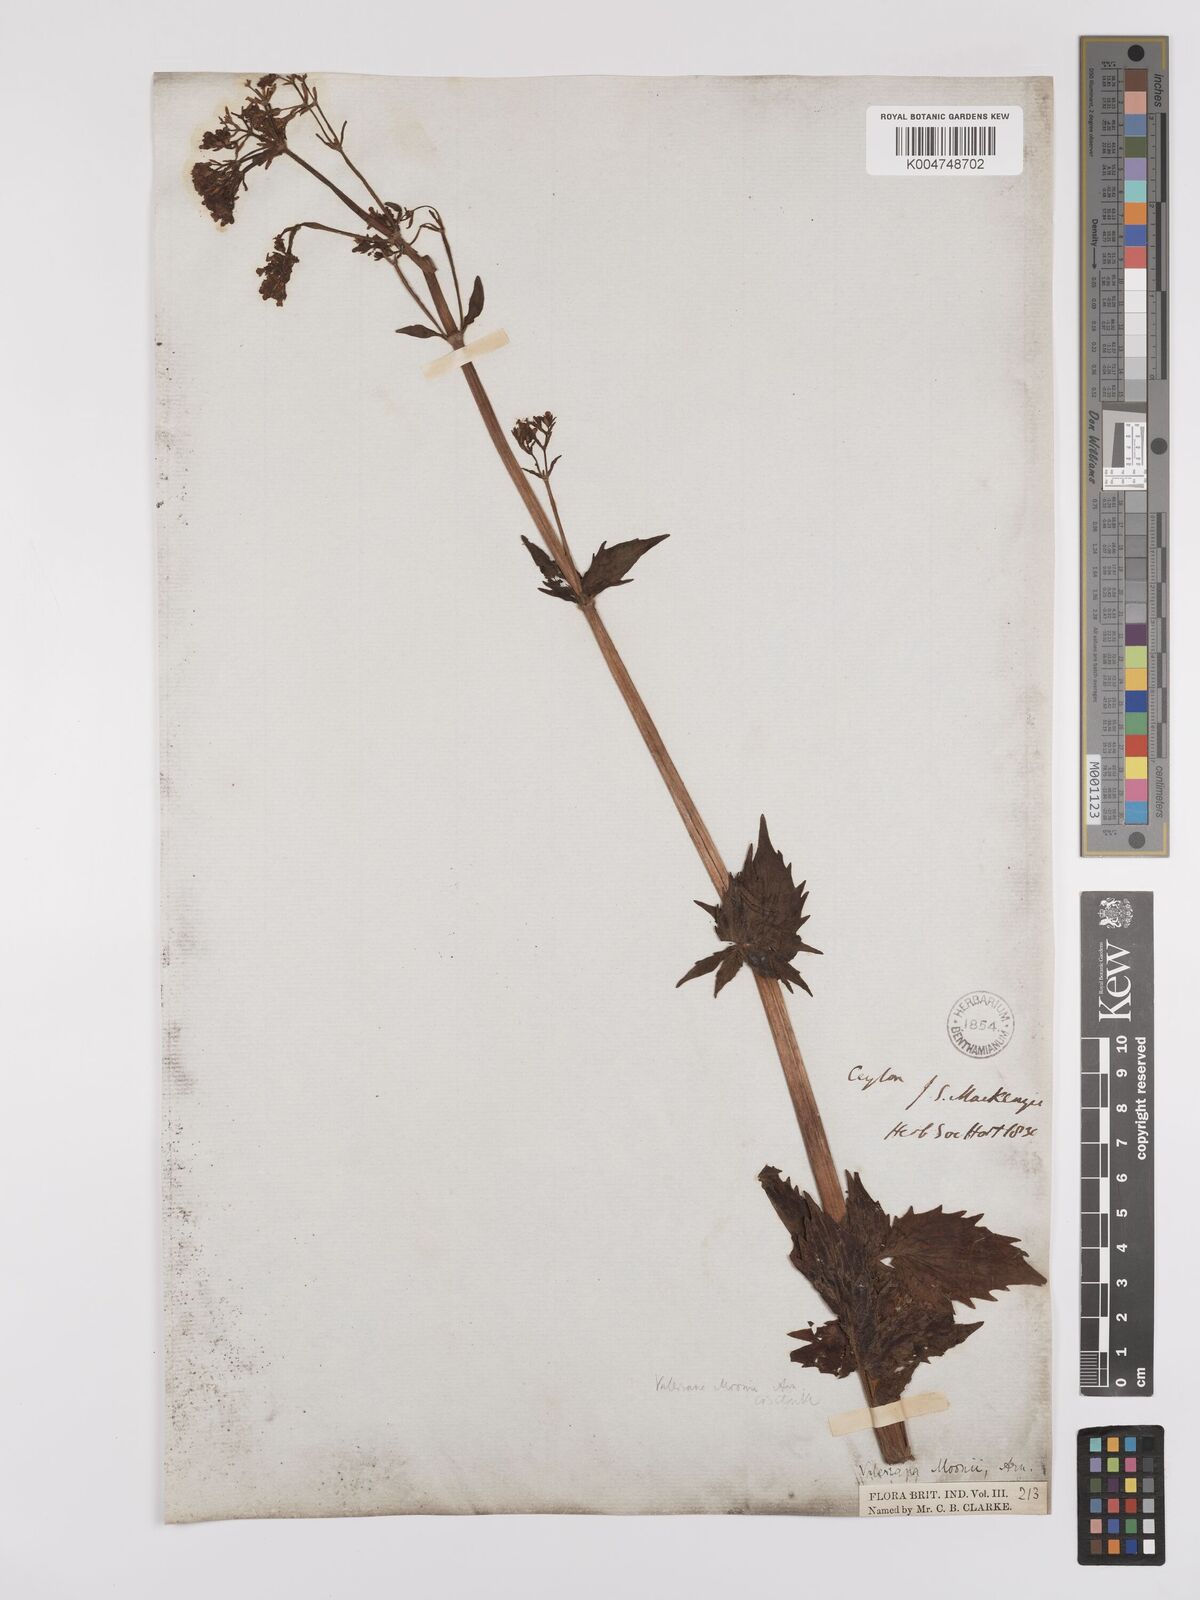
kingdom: Plantae
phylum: Tracheophyta
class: Magnoliopsida
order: Dipsacales
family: Caprifoliaceae
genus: Valeriana
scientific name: Valeriana moonii
